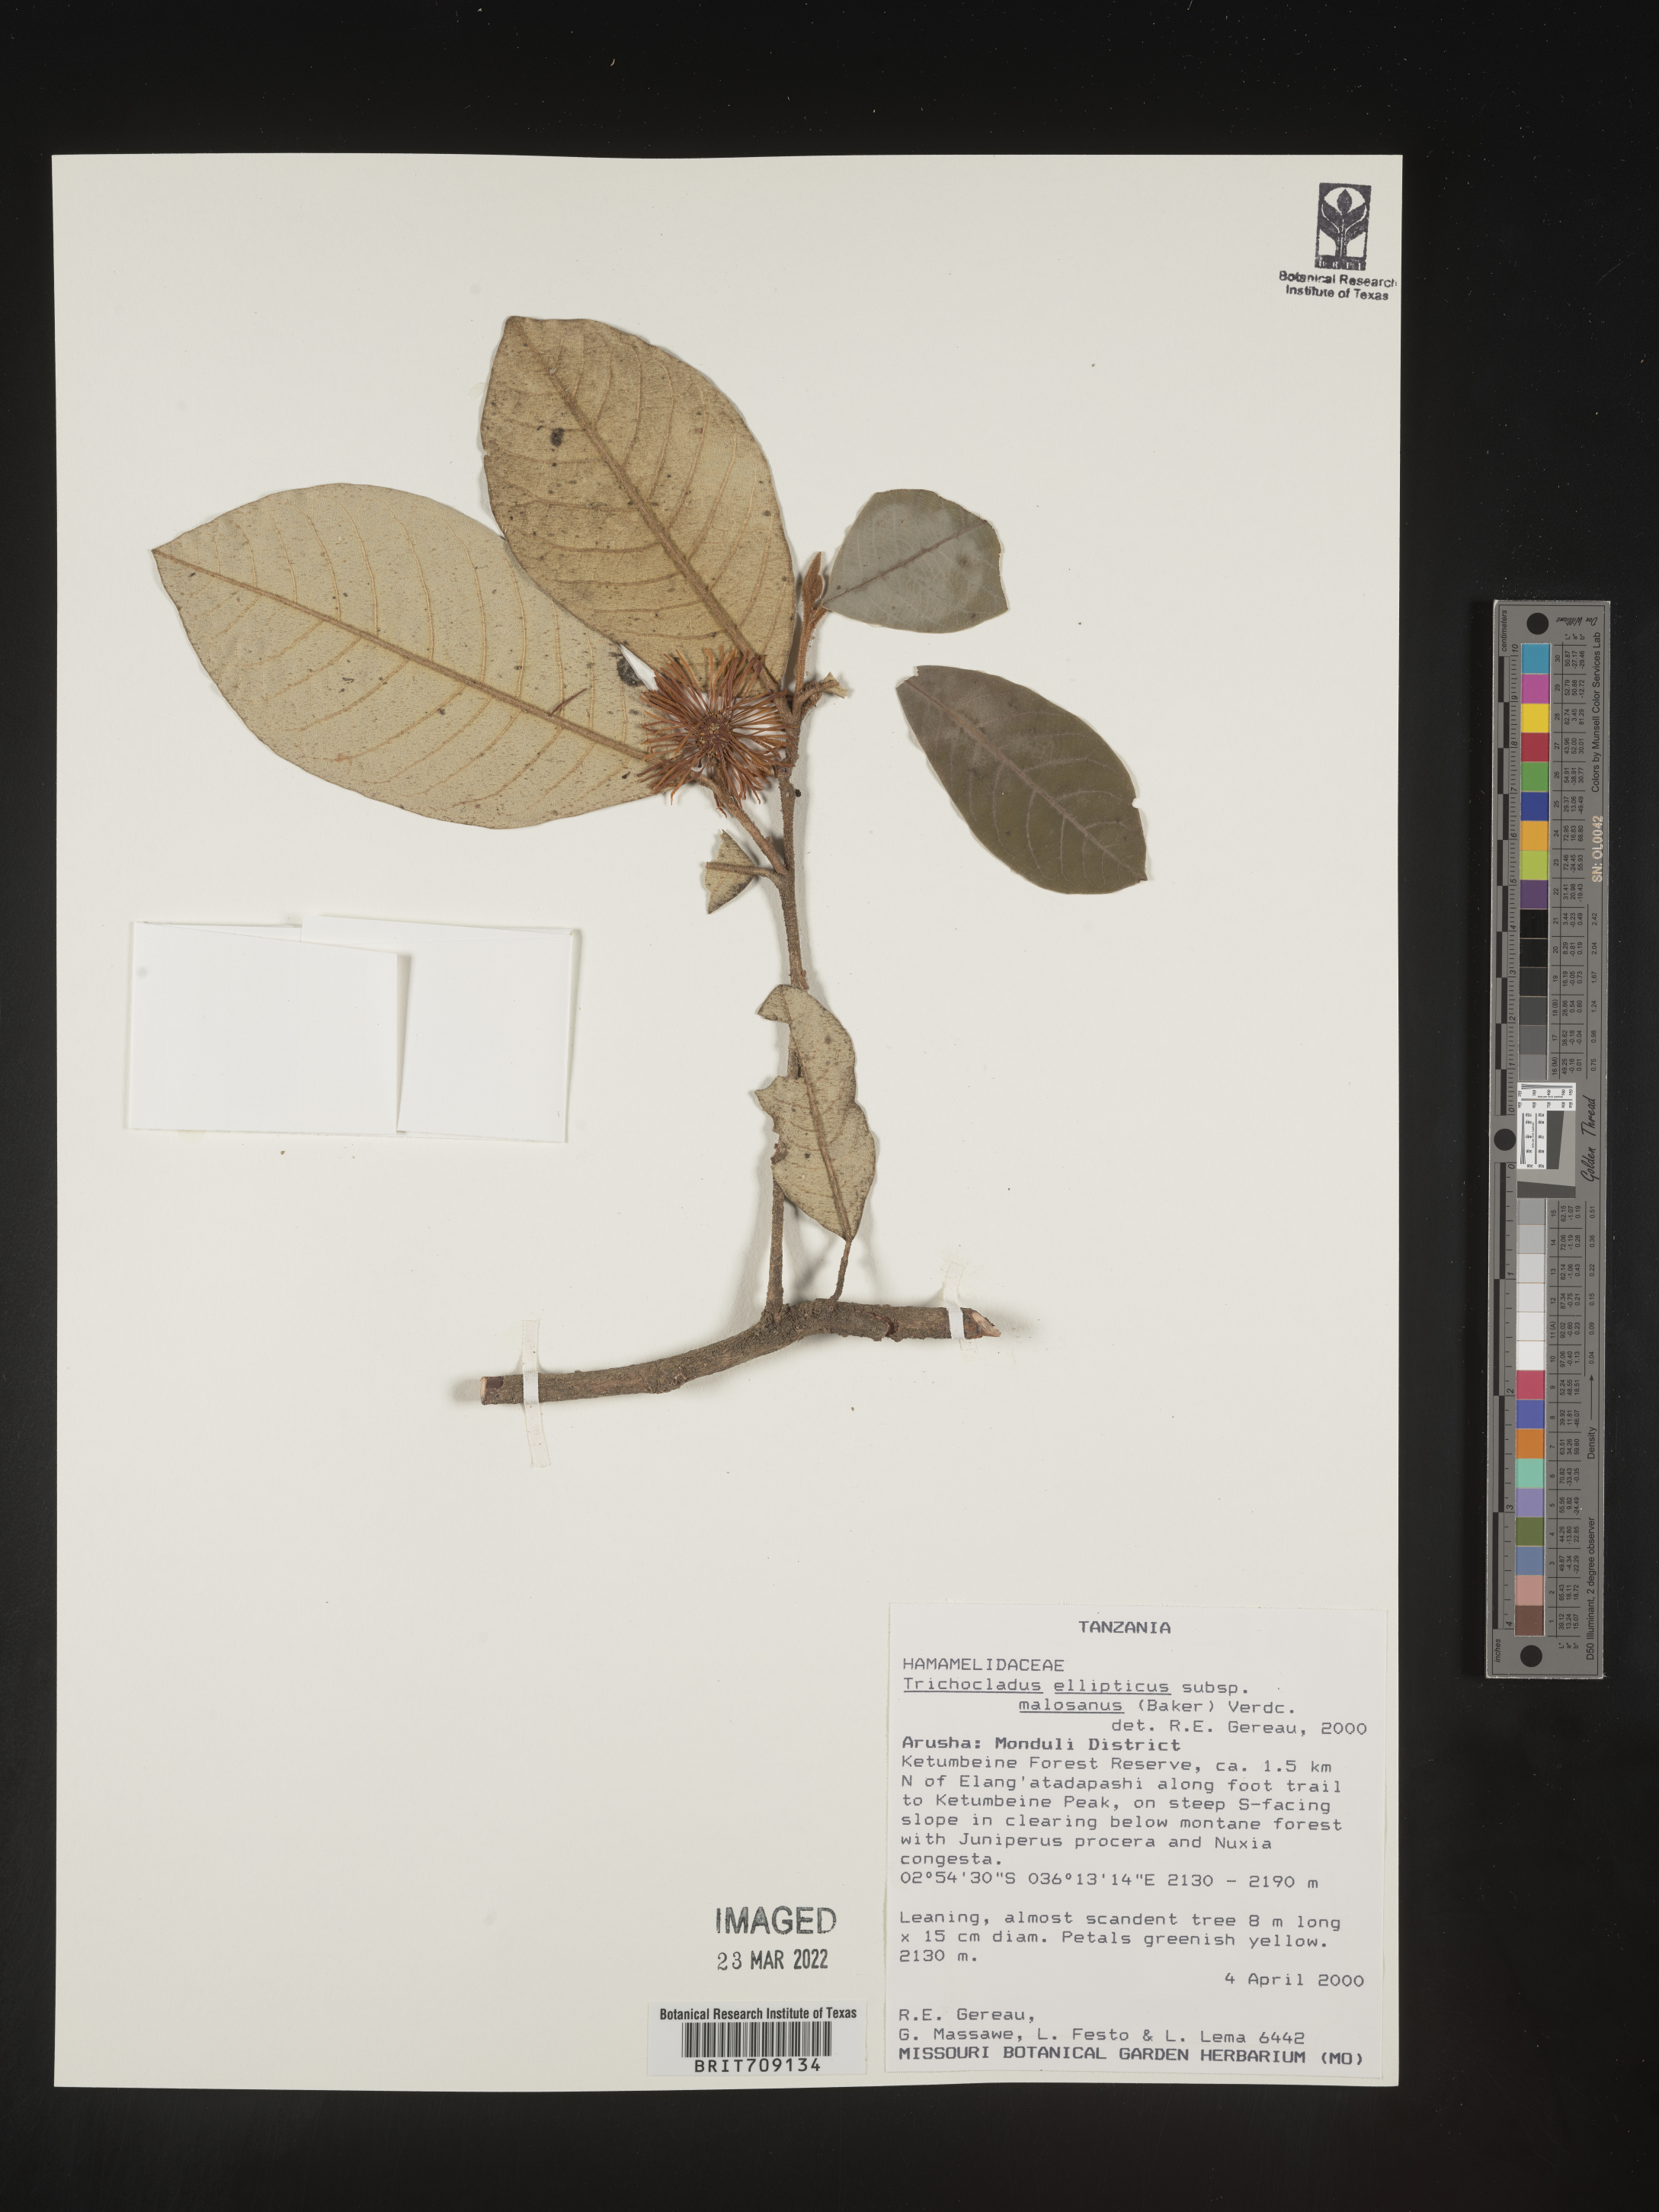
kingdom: Plantae
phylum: Tracheophyta
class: Magnoliopsida
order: Saxifragales
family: Hamamelidaceae
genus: Trichocladus
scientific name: Trichocladus
